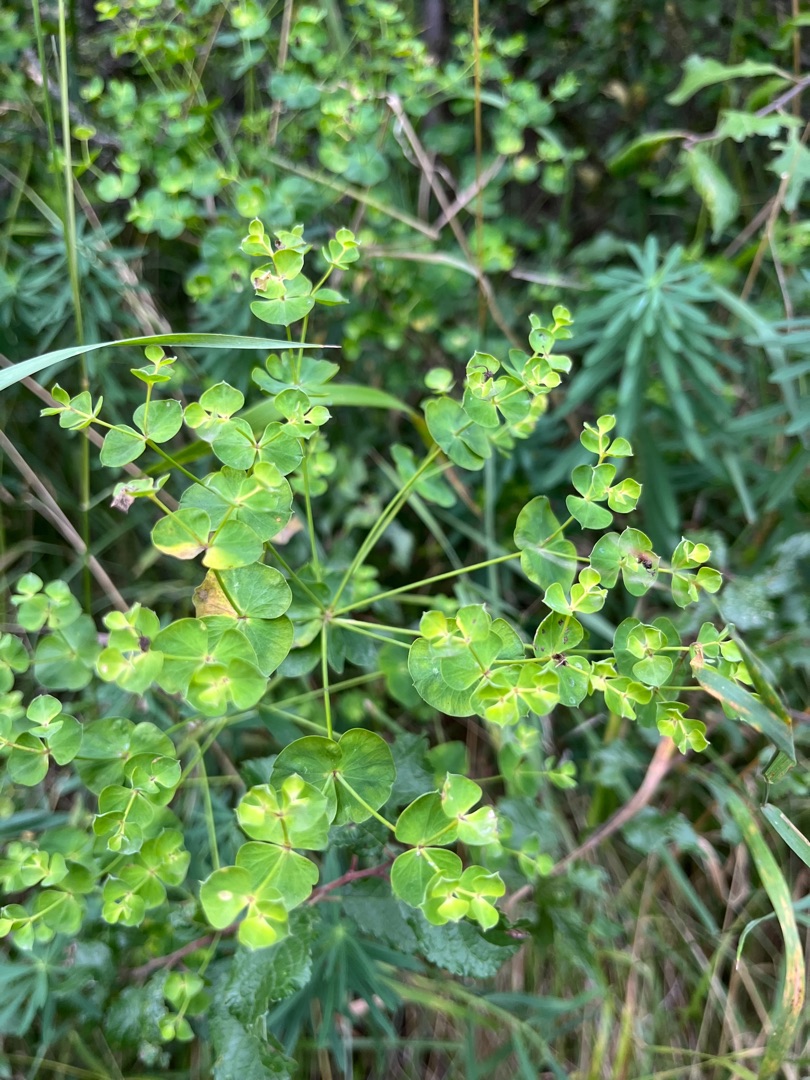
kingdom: Plantae
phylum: Tracheophyta
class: Magnoliopsida
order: Malpighiales
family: Euphorbiaceae
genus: Euphorbia
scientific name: Euphorbia esula
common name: Langbladet vortemælk
